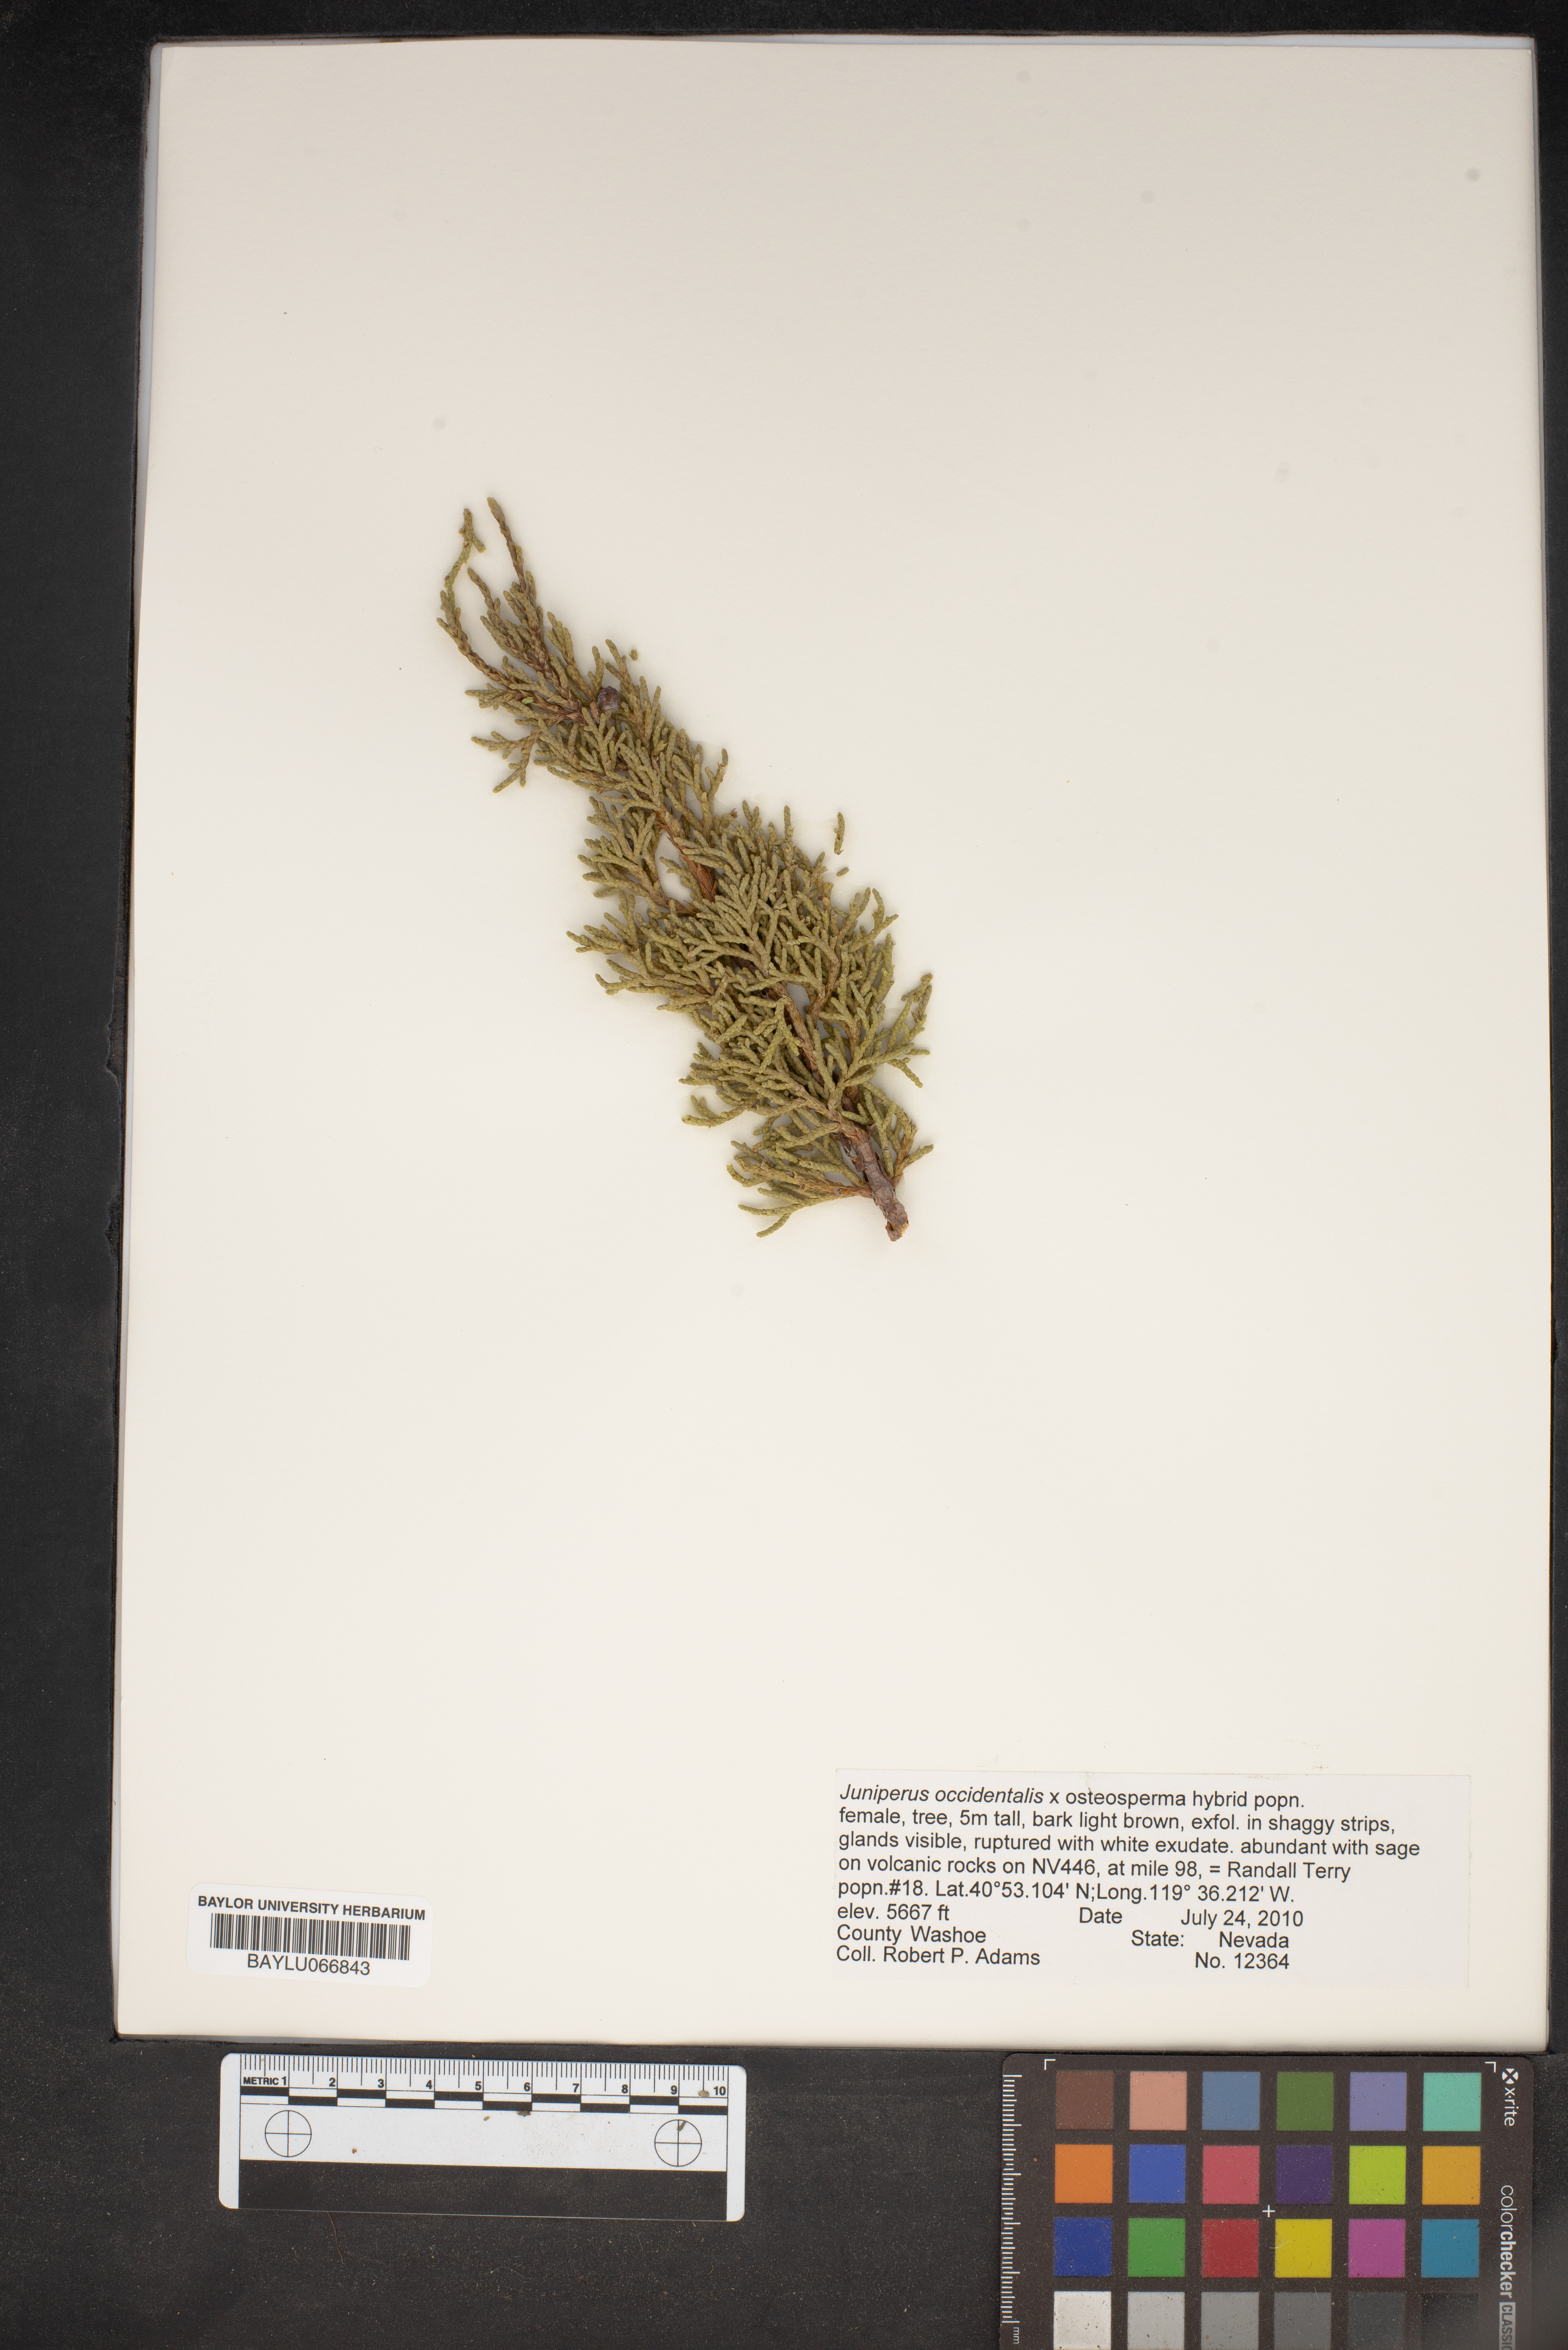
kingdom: Plantae
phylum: Tracheophyta
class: Pinopsida
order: Pinales
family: Cupressaceae
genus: Juniperus
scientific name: Juniperus occidentalis
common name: Western juniper
